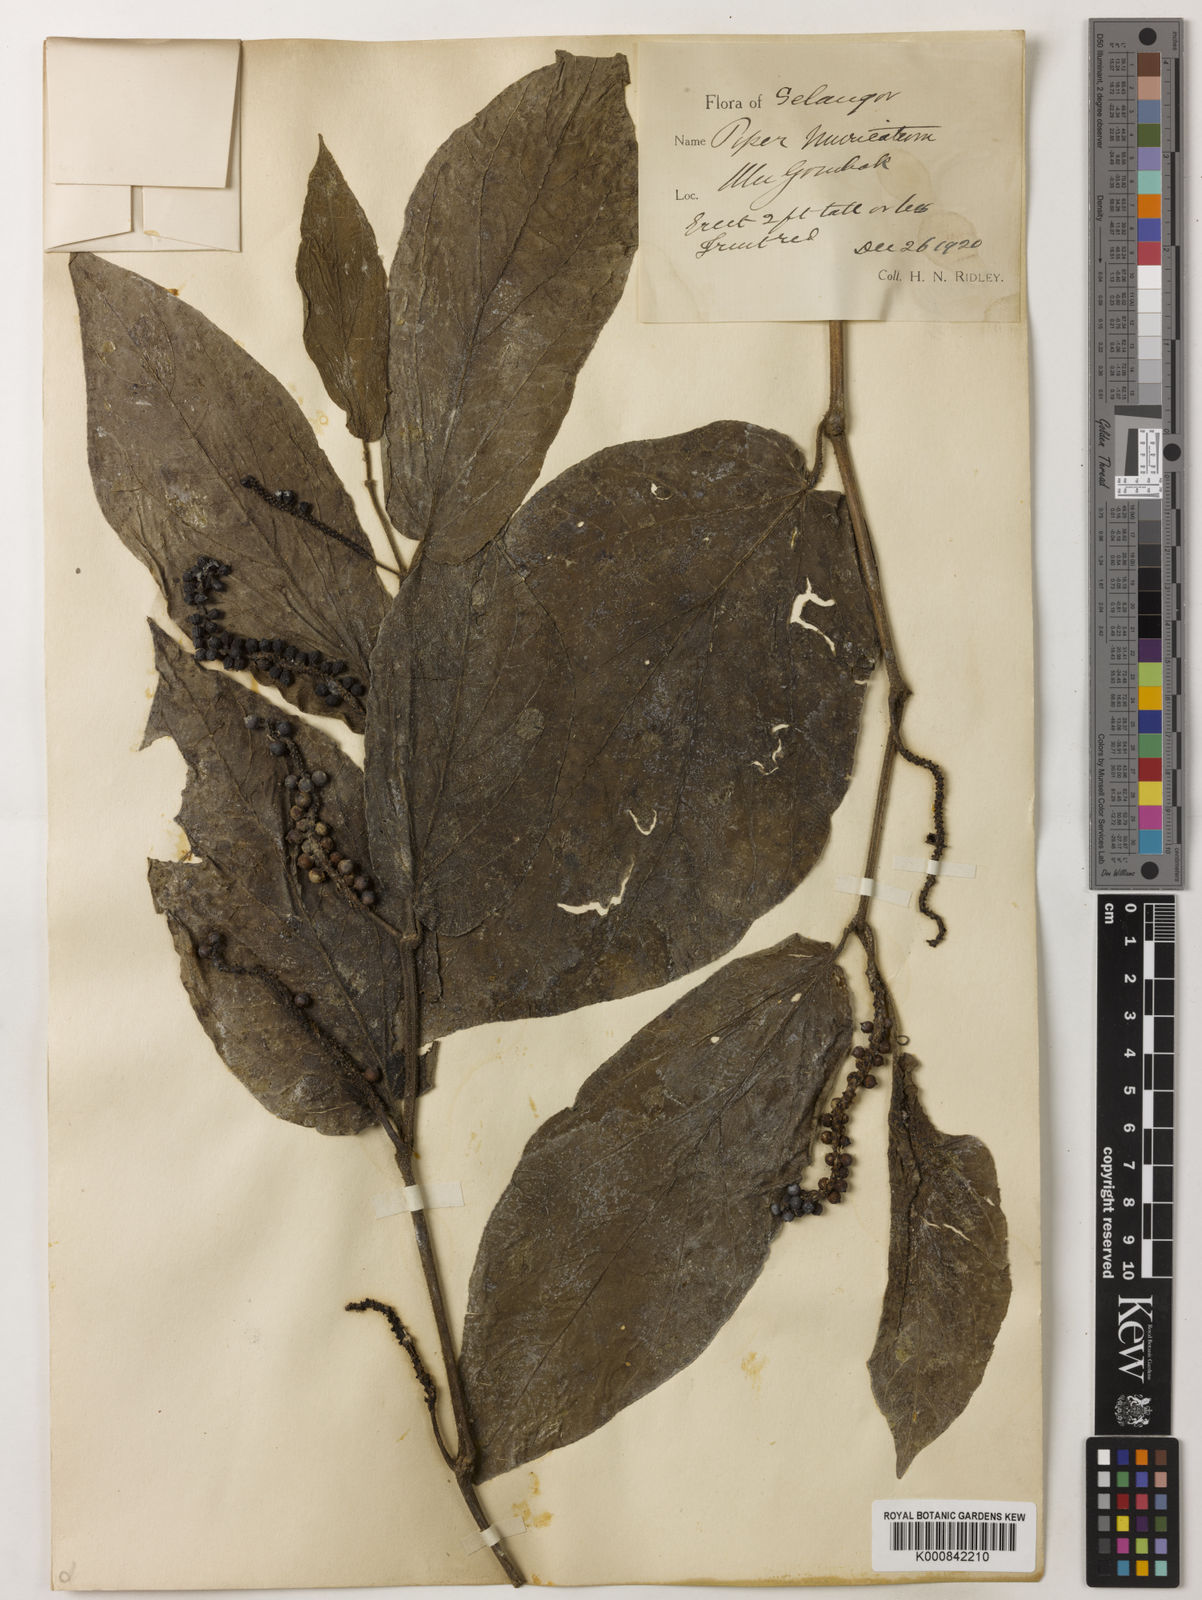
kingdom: Plantae
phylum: Tracheophyta
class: Magnoliopsida
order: Piperales
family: Piperaceae
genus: Piper
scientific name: Piper muricatum
